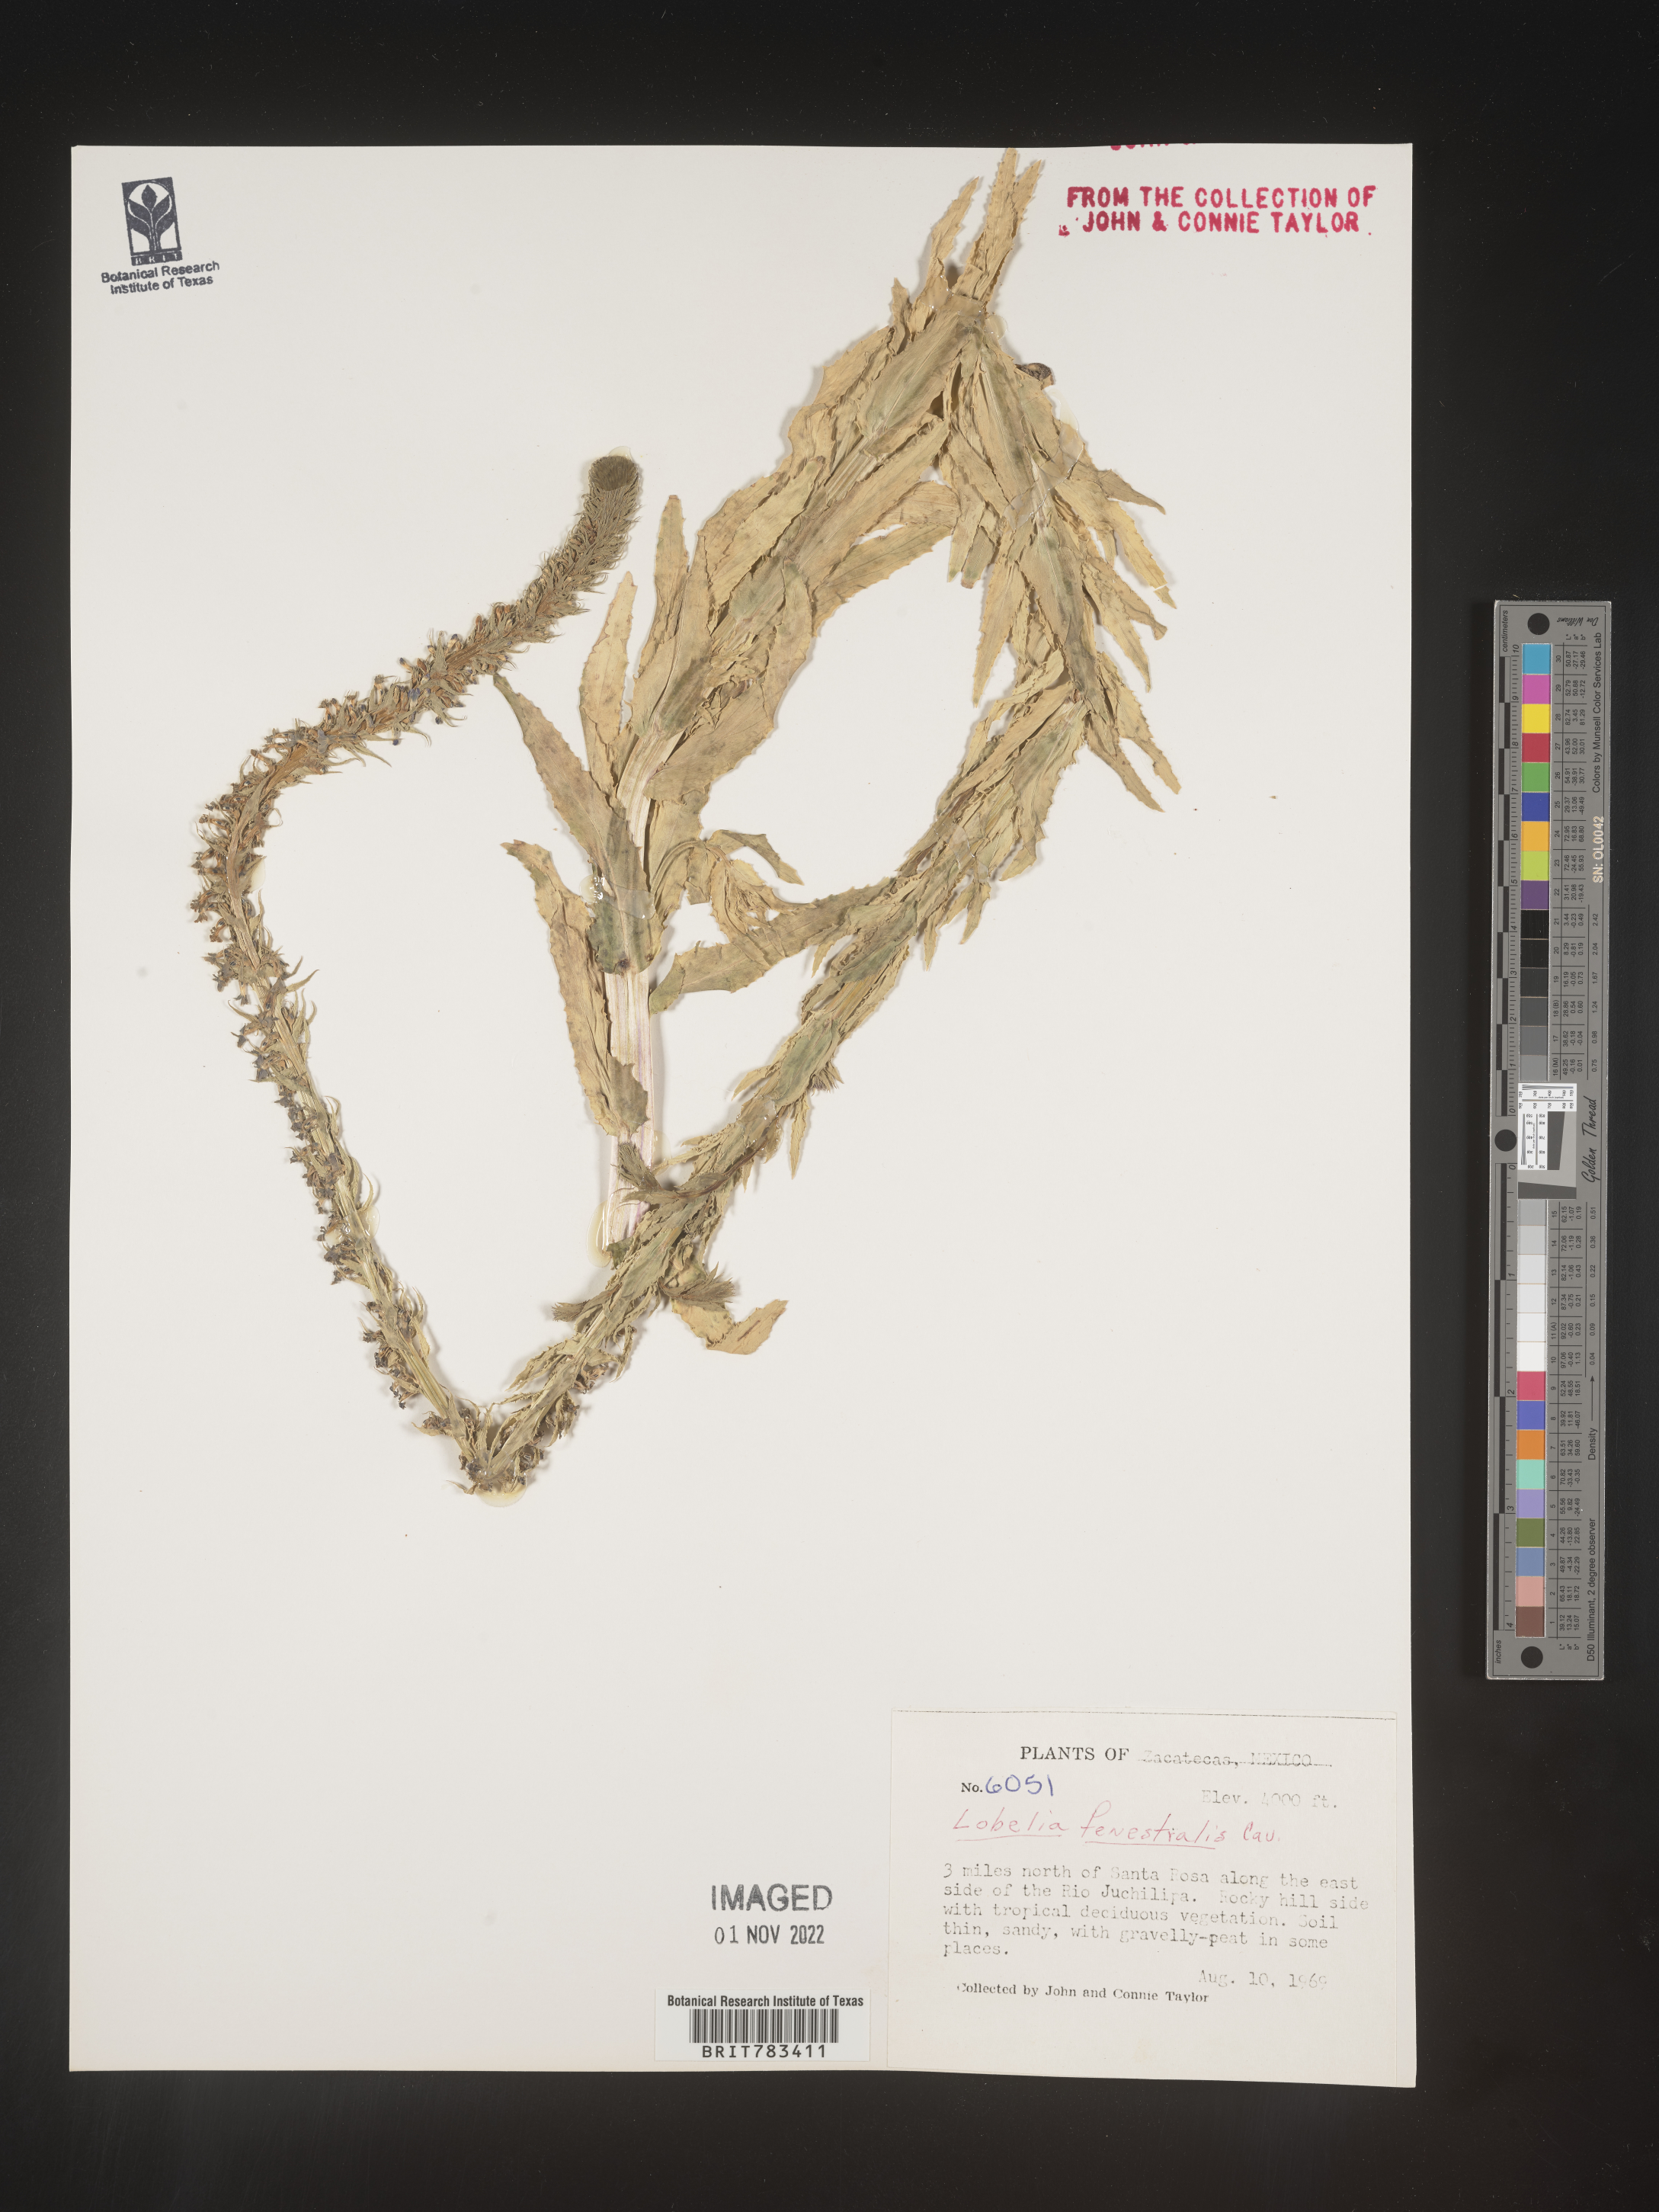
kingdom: Plantae
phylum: Tracheophyta
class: Magnoliopsida
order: Asterales
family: Campanulaceae
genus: Lobelia
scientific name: Lobelia
